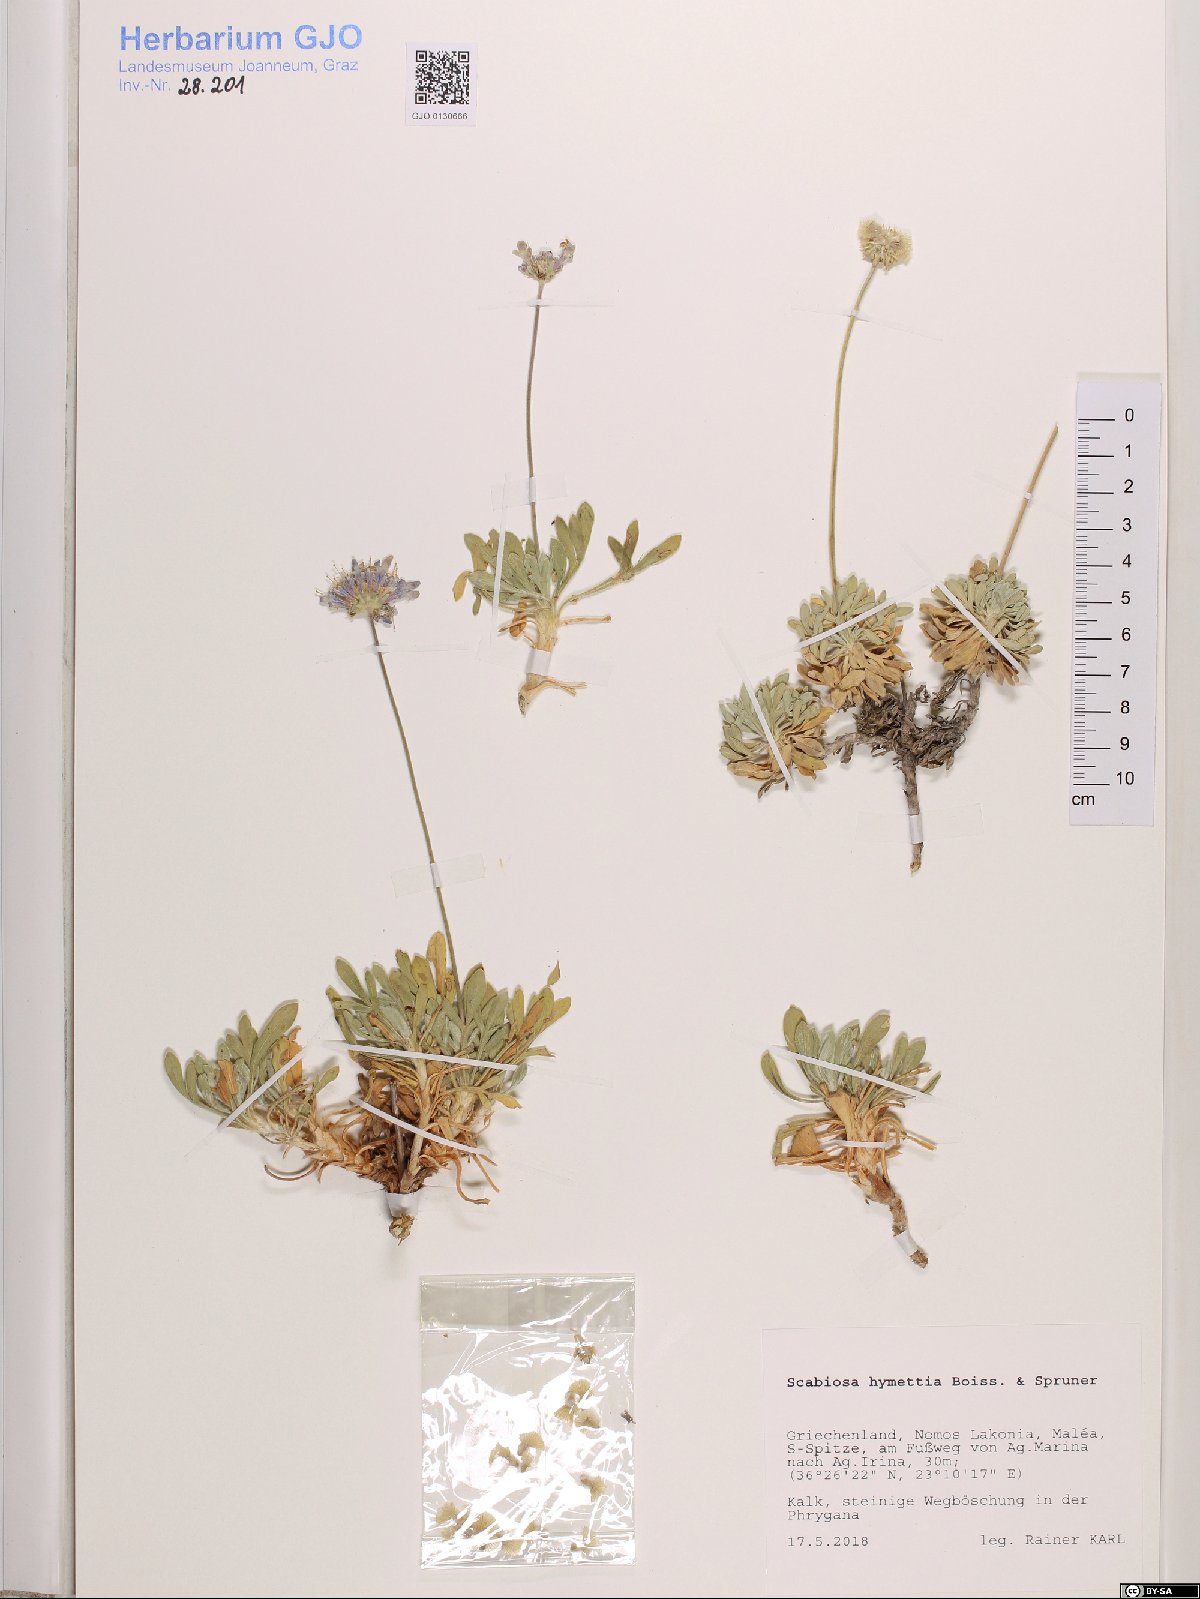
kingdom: Plantae
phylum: Tracheophyta
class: Magnoliopsida
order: Dipsacales
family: Caprifoliaceae
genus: Lomelosia
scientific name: Lomelosia hymettia
